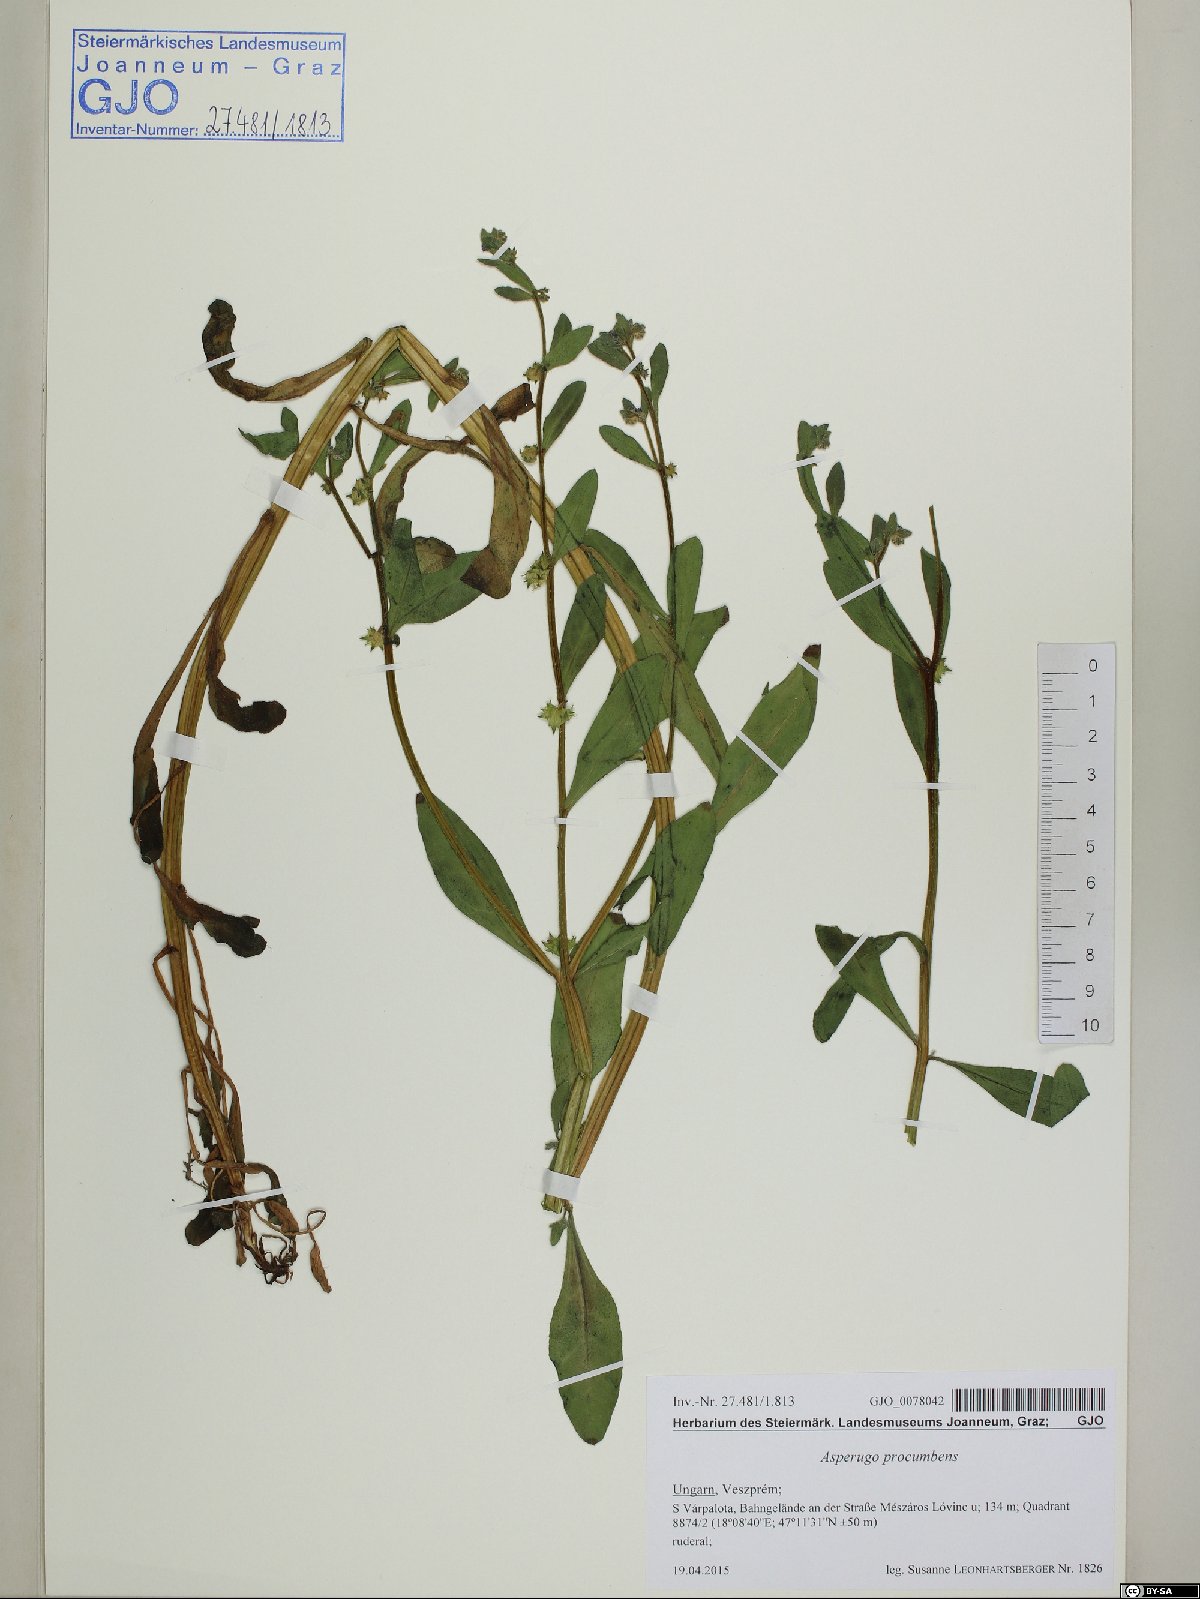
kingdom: Plantae
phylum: Tracheophyta
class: Magnoliopsida
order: Boraginales
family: Boraginaceae
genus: Asperugo
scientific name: Asperugo procumbens
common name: Madwort
